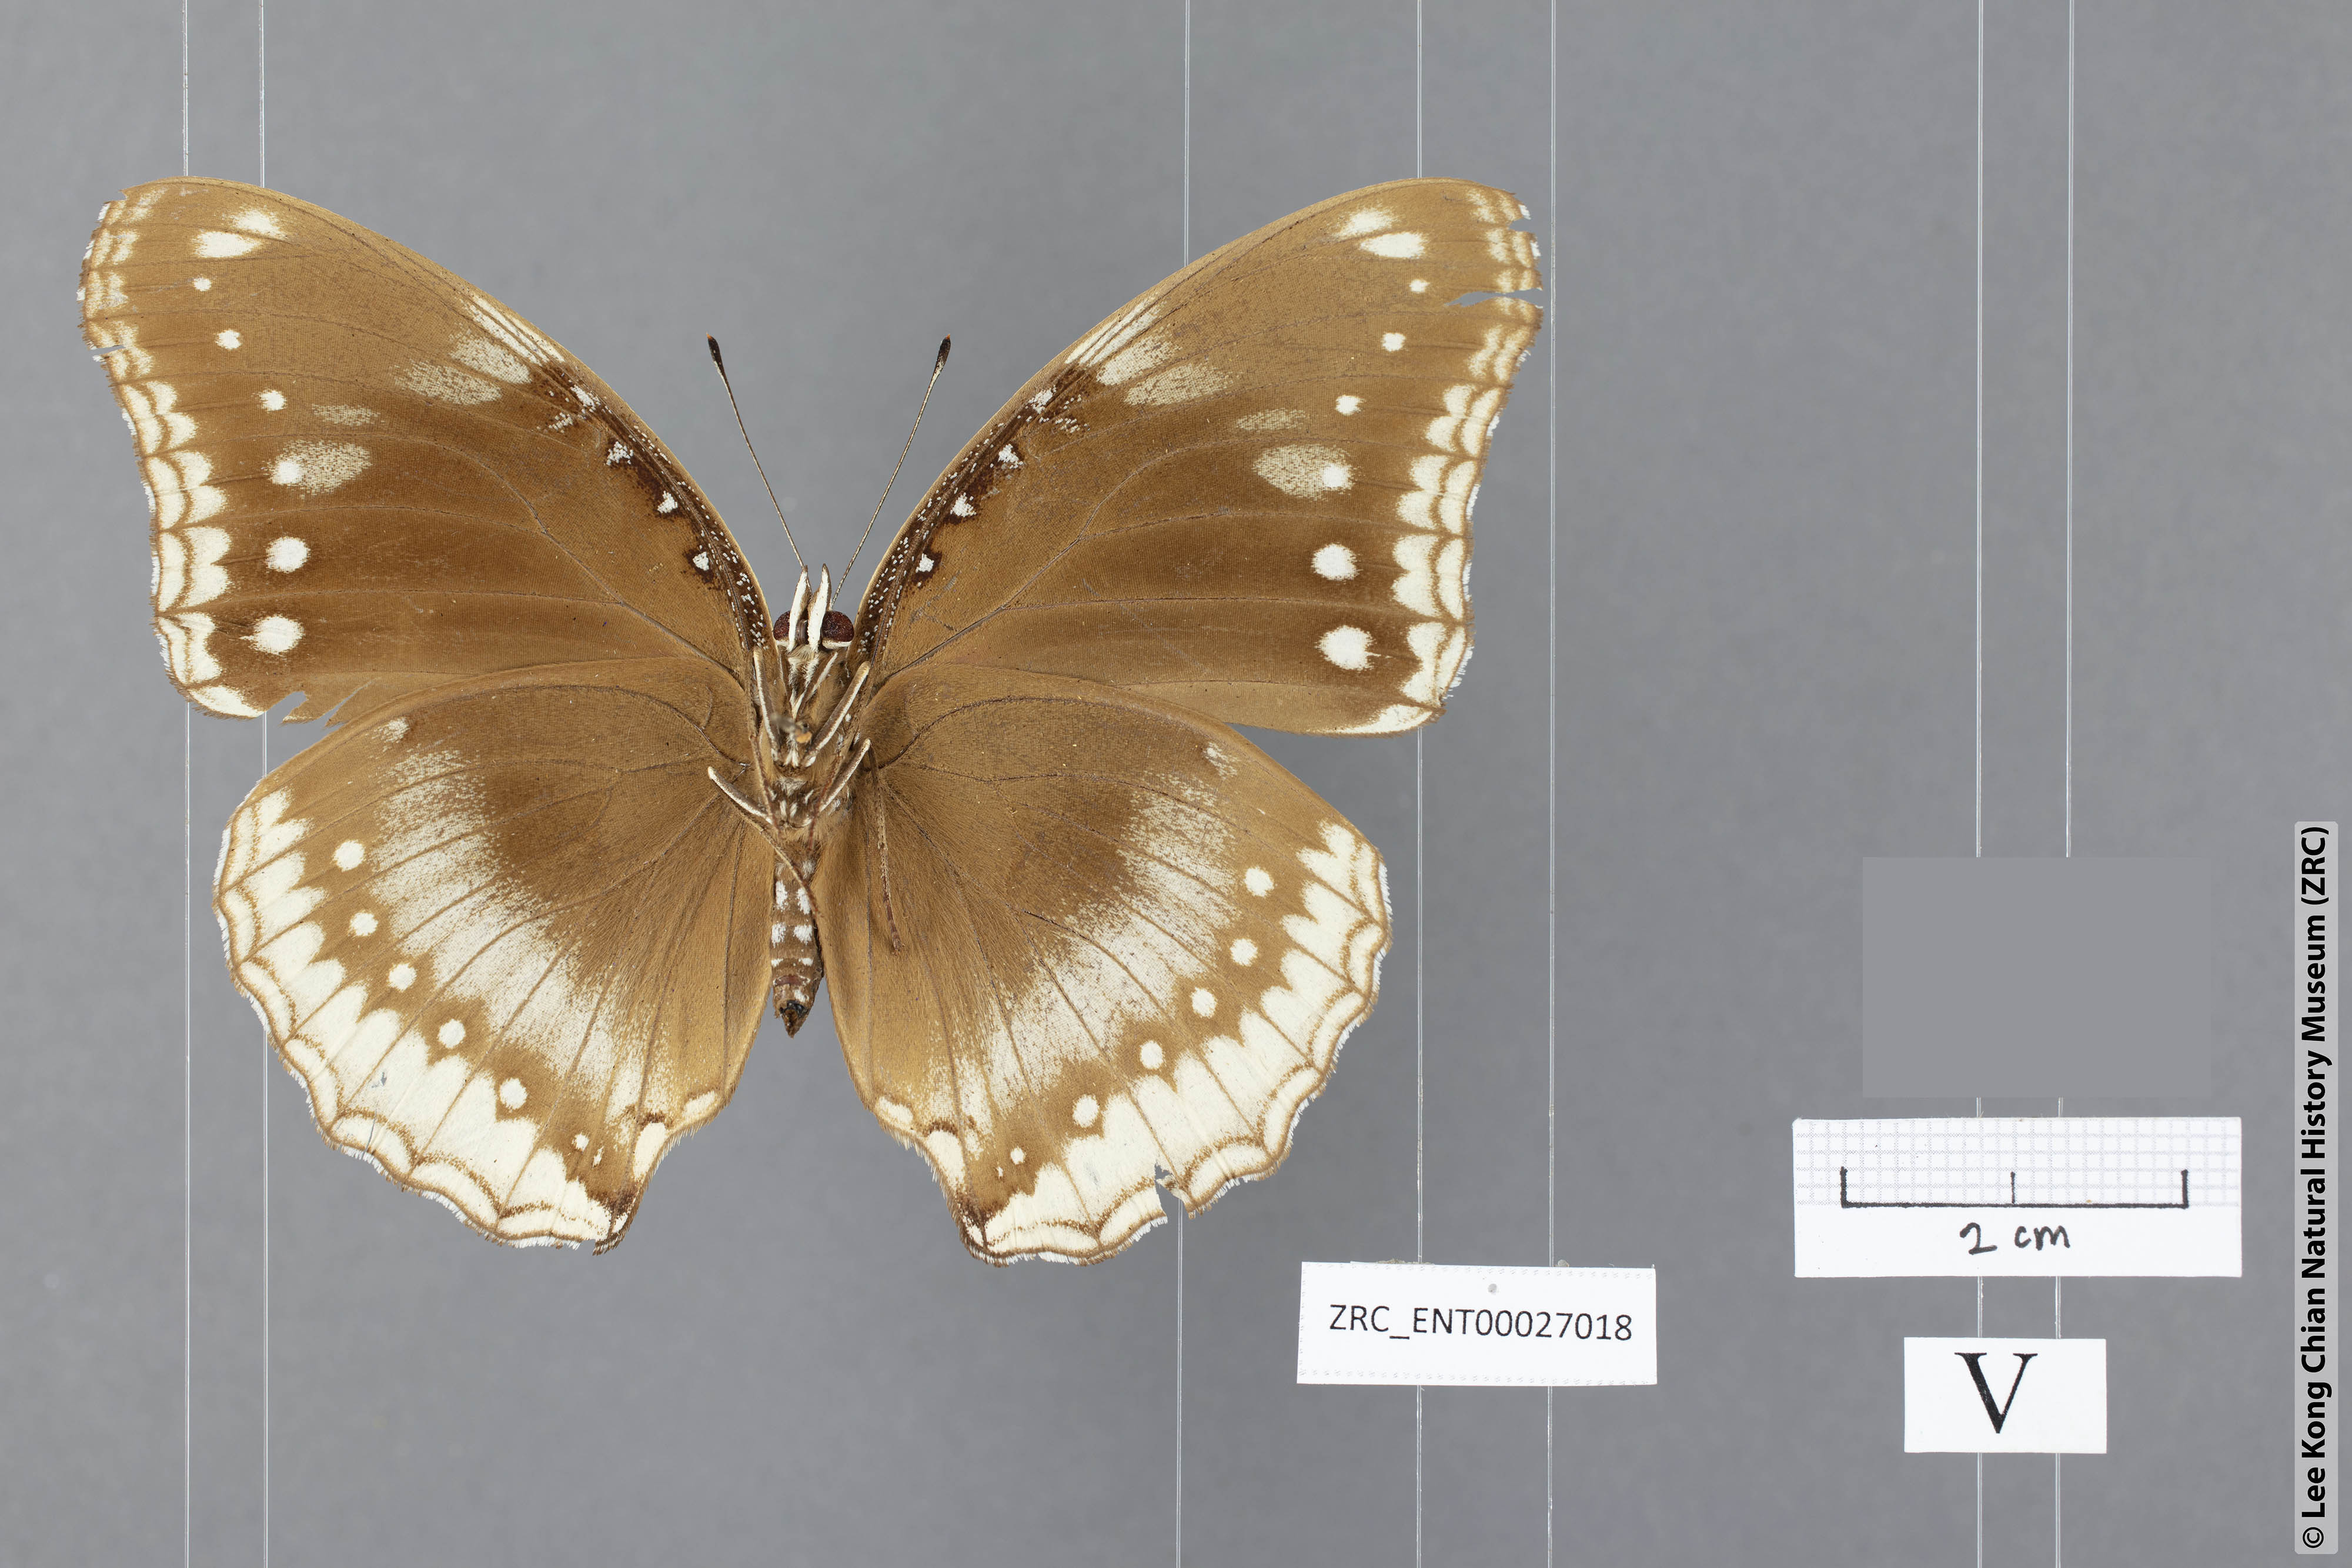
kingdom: Animalia
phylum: Arthropoda
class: Insecta
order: Lepidoptera
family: Nymphalidae
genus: Hypolimnas
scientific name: Hypolimnas bolina
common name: Great eggfly
